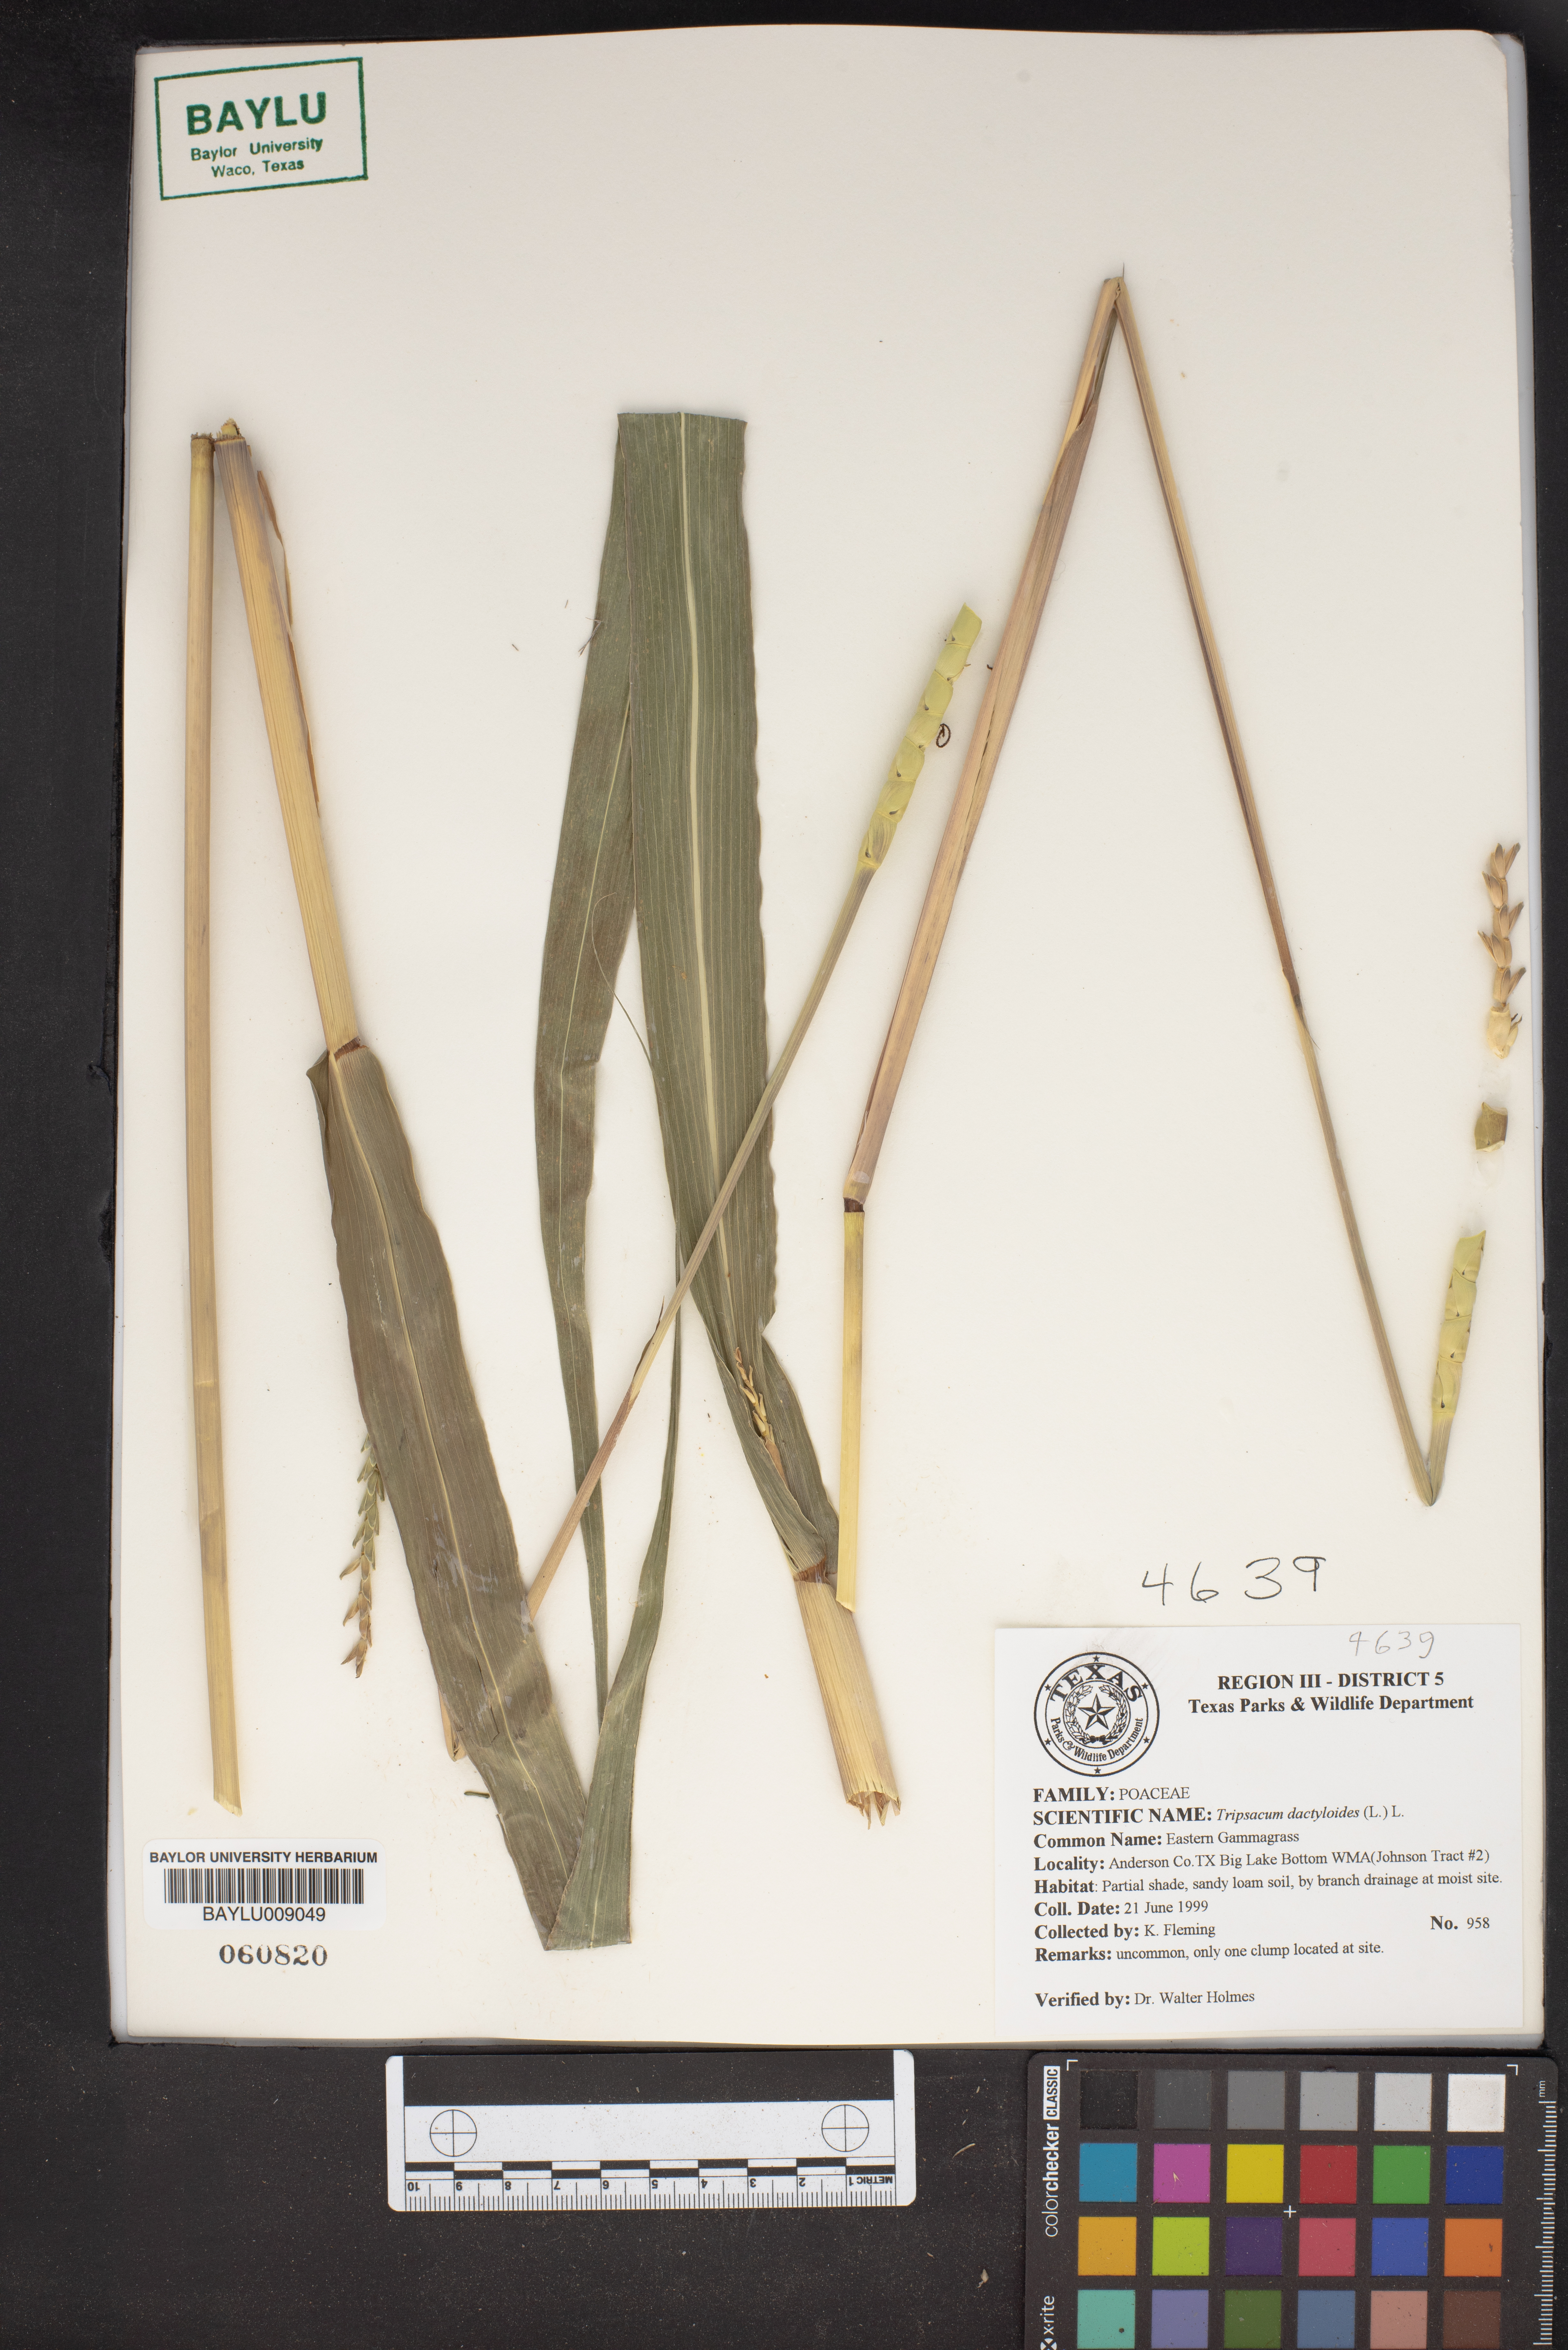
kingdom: Plantae
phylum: Tracheophyta
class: Liliopsida
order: Poales
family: Poaceae
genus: Tripsacum
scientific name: Tripsacum dactyloides
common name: Buffalo-grass
